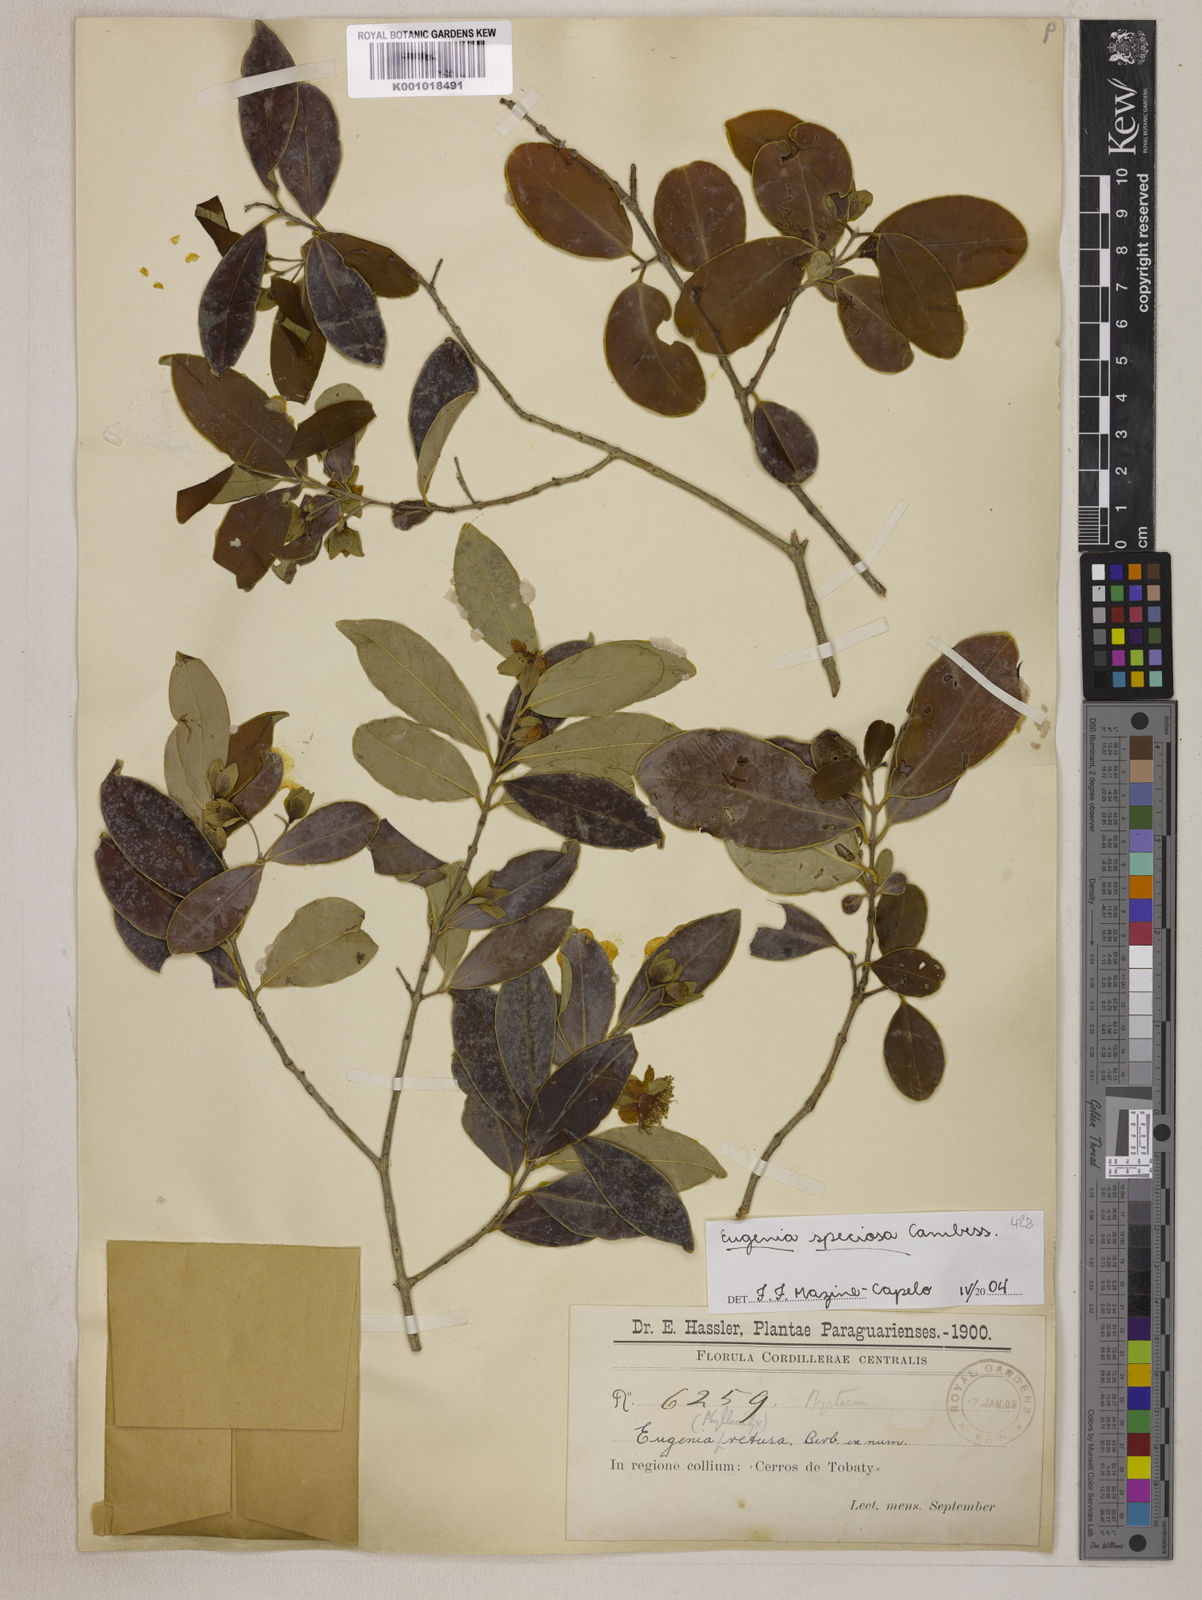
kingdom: Plantae
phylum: Tracheophyta
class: Magnoliopsida
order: Myrtales
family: Myrtaceae
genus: Eugenia
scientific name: Eugenia speciosa
